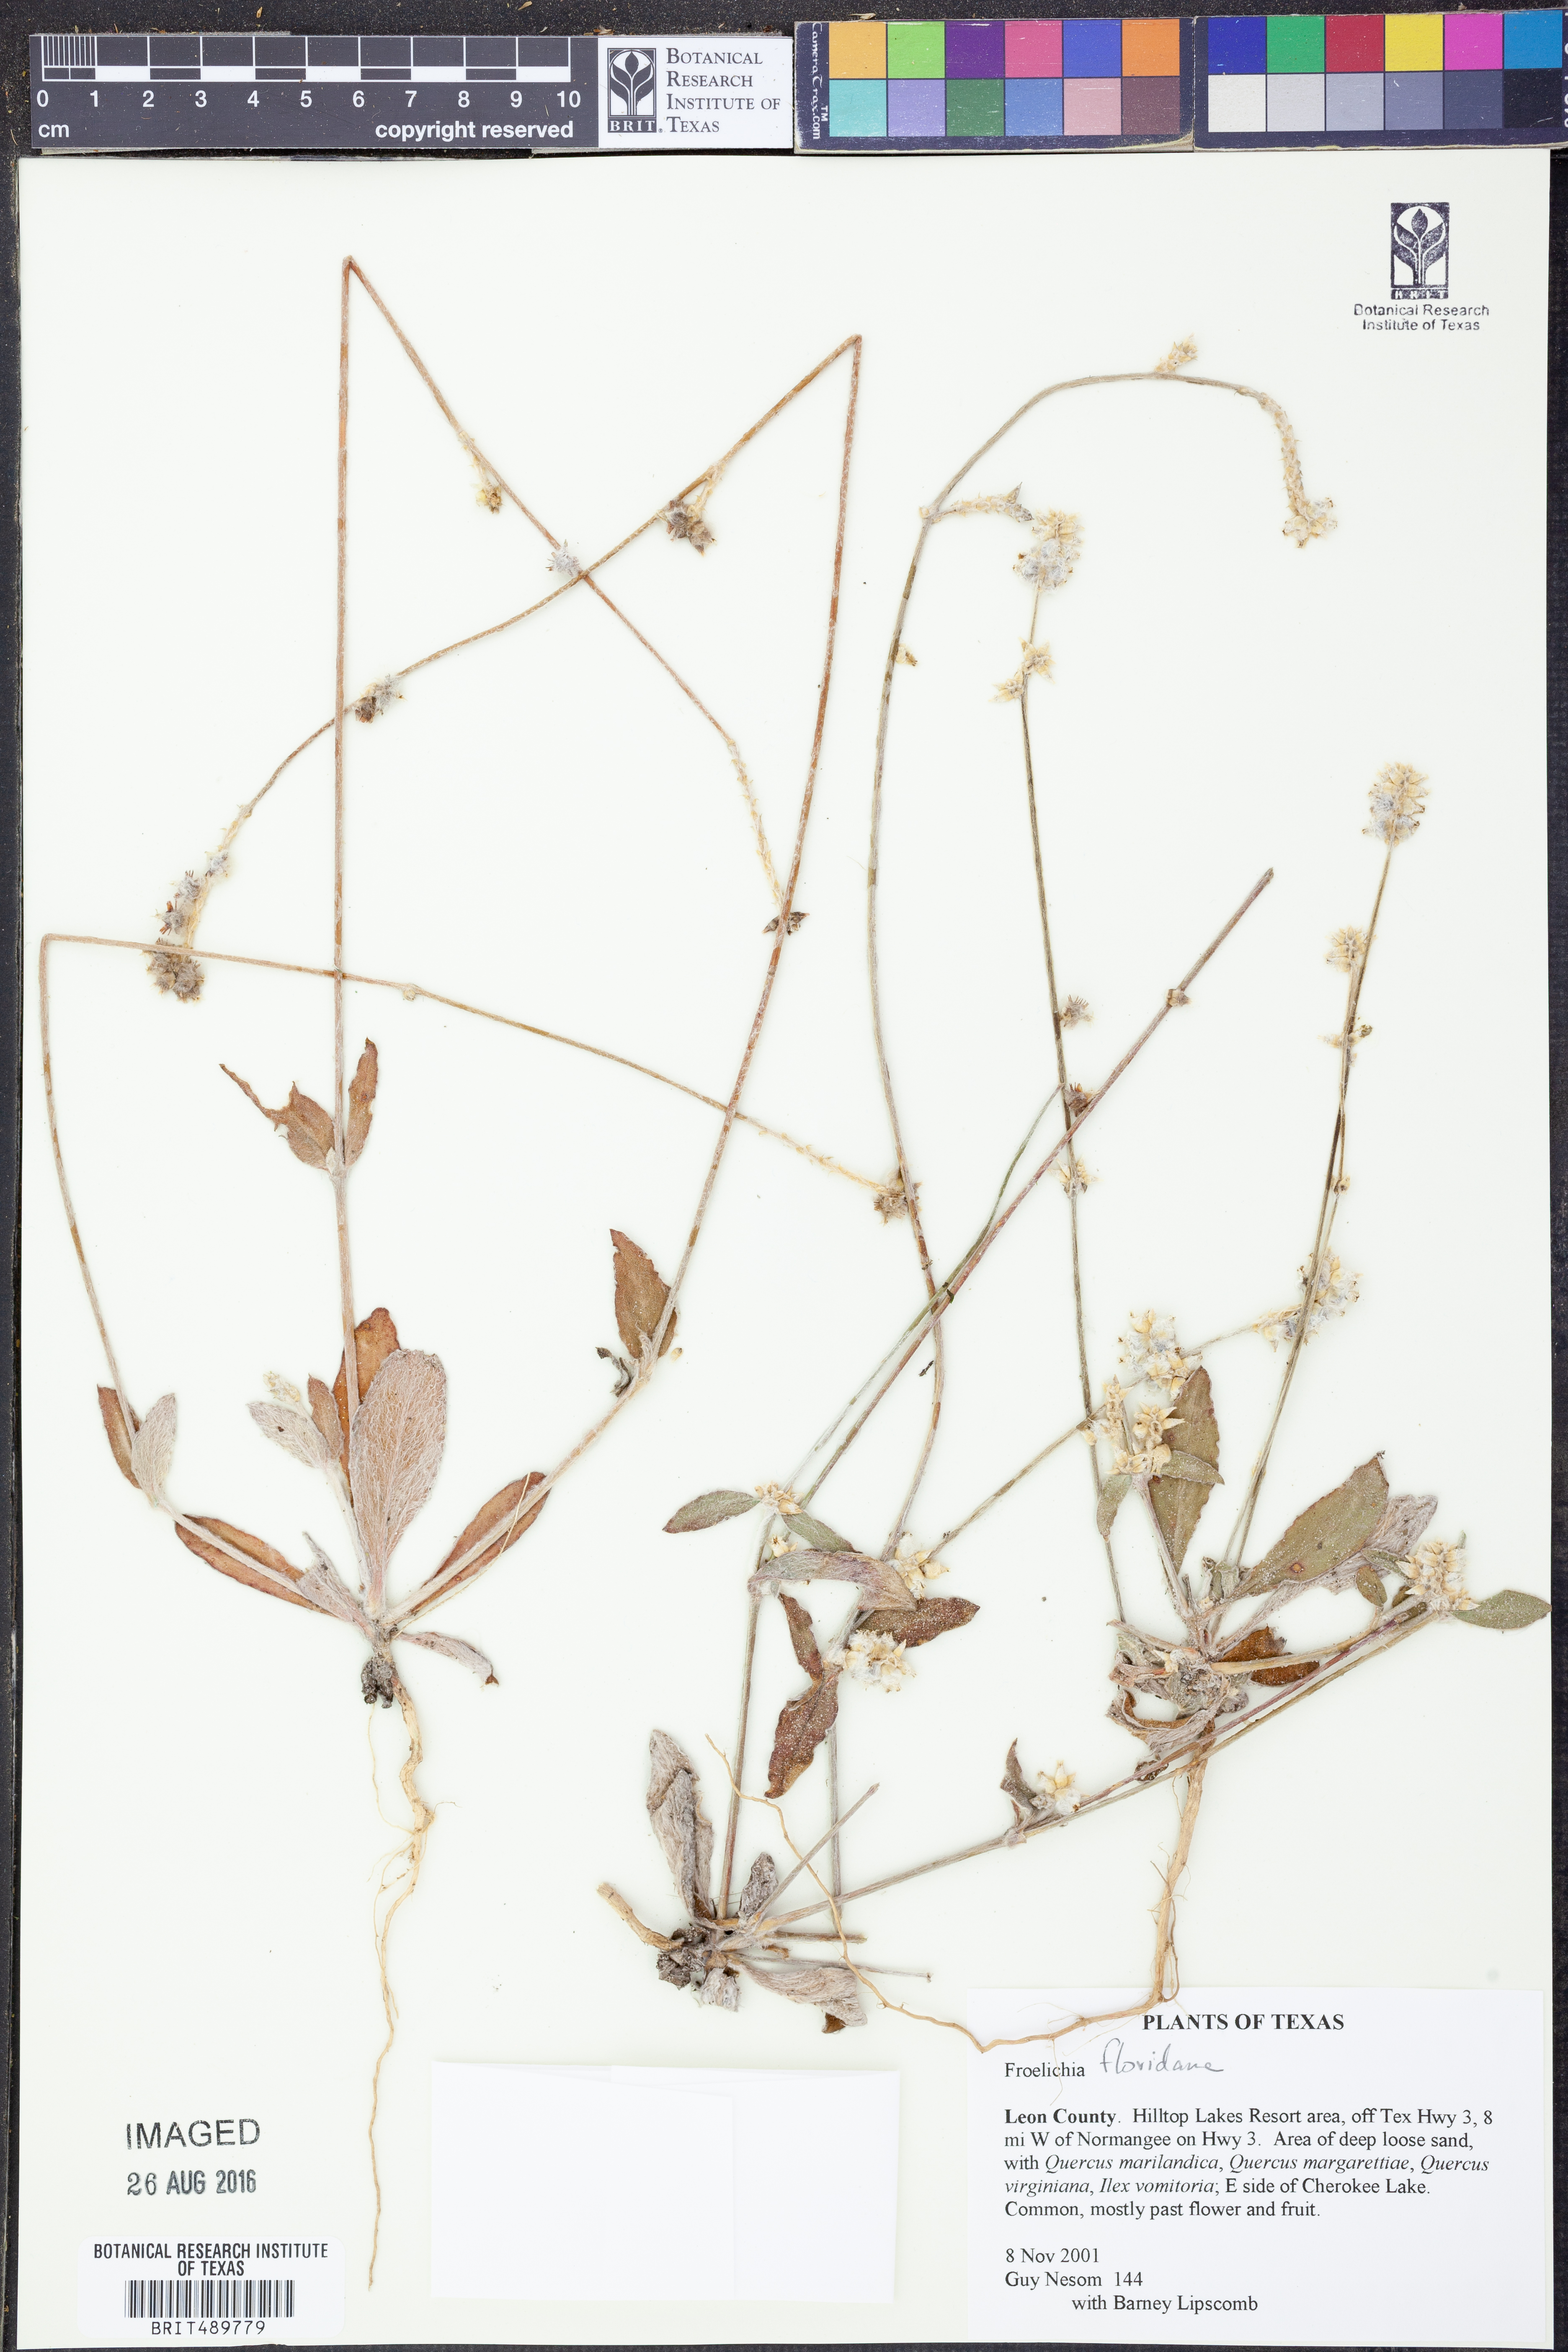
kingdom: Plantae
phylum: Tracheophyta
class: Magnoliopsida
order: Caryophyllales
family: Amaranthaceae
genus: Froelichia
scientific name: Froelichia floridana
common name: Florida snake-cotton
